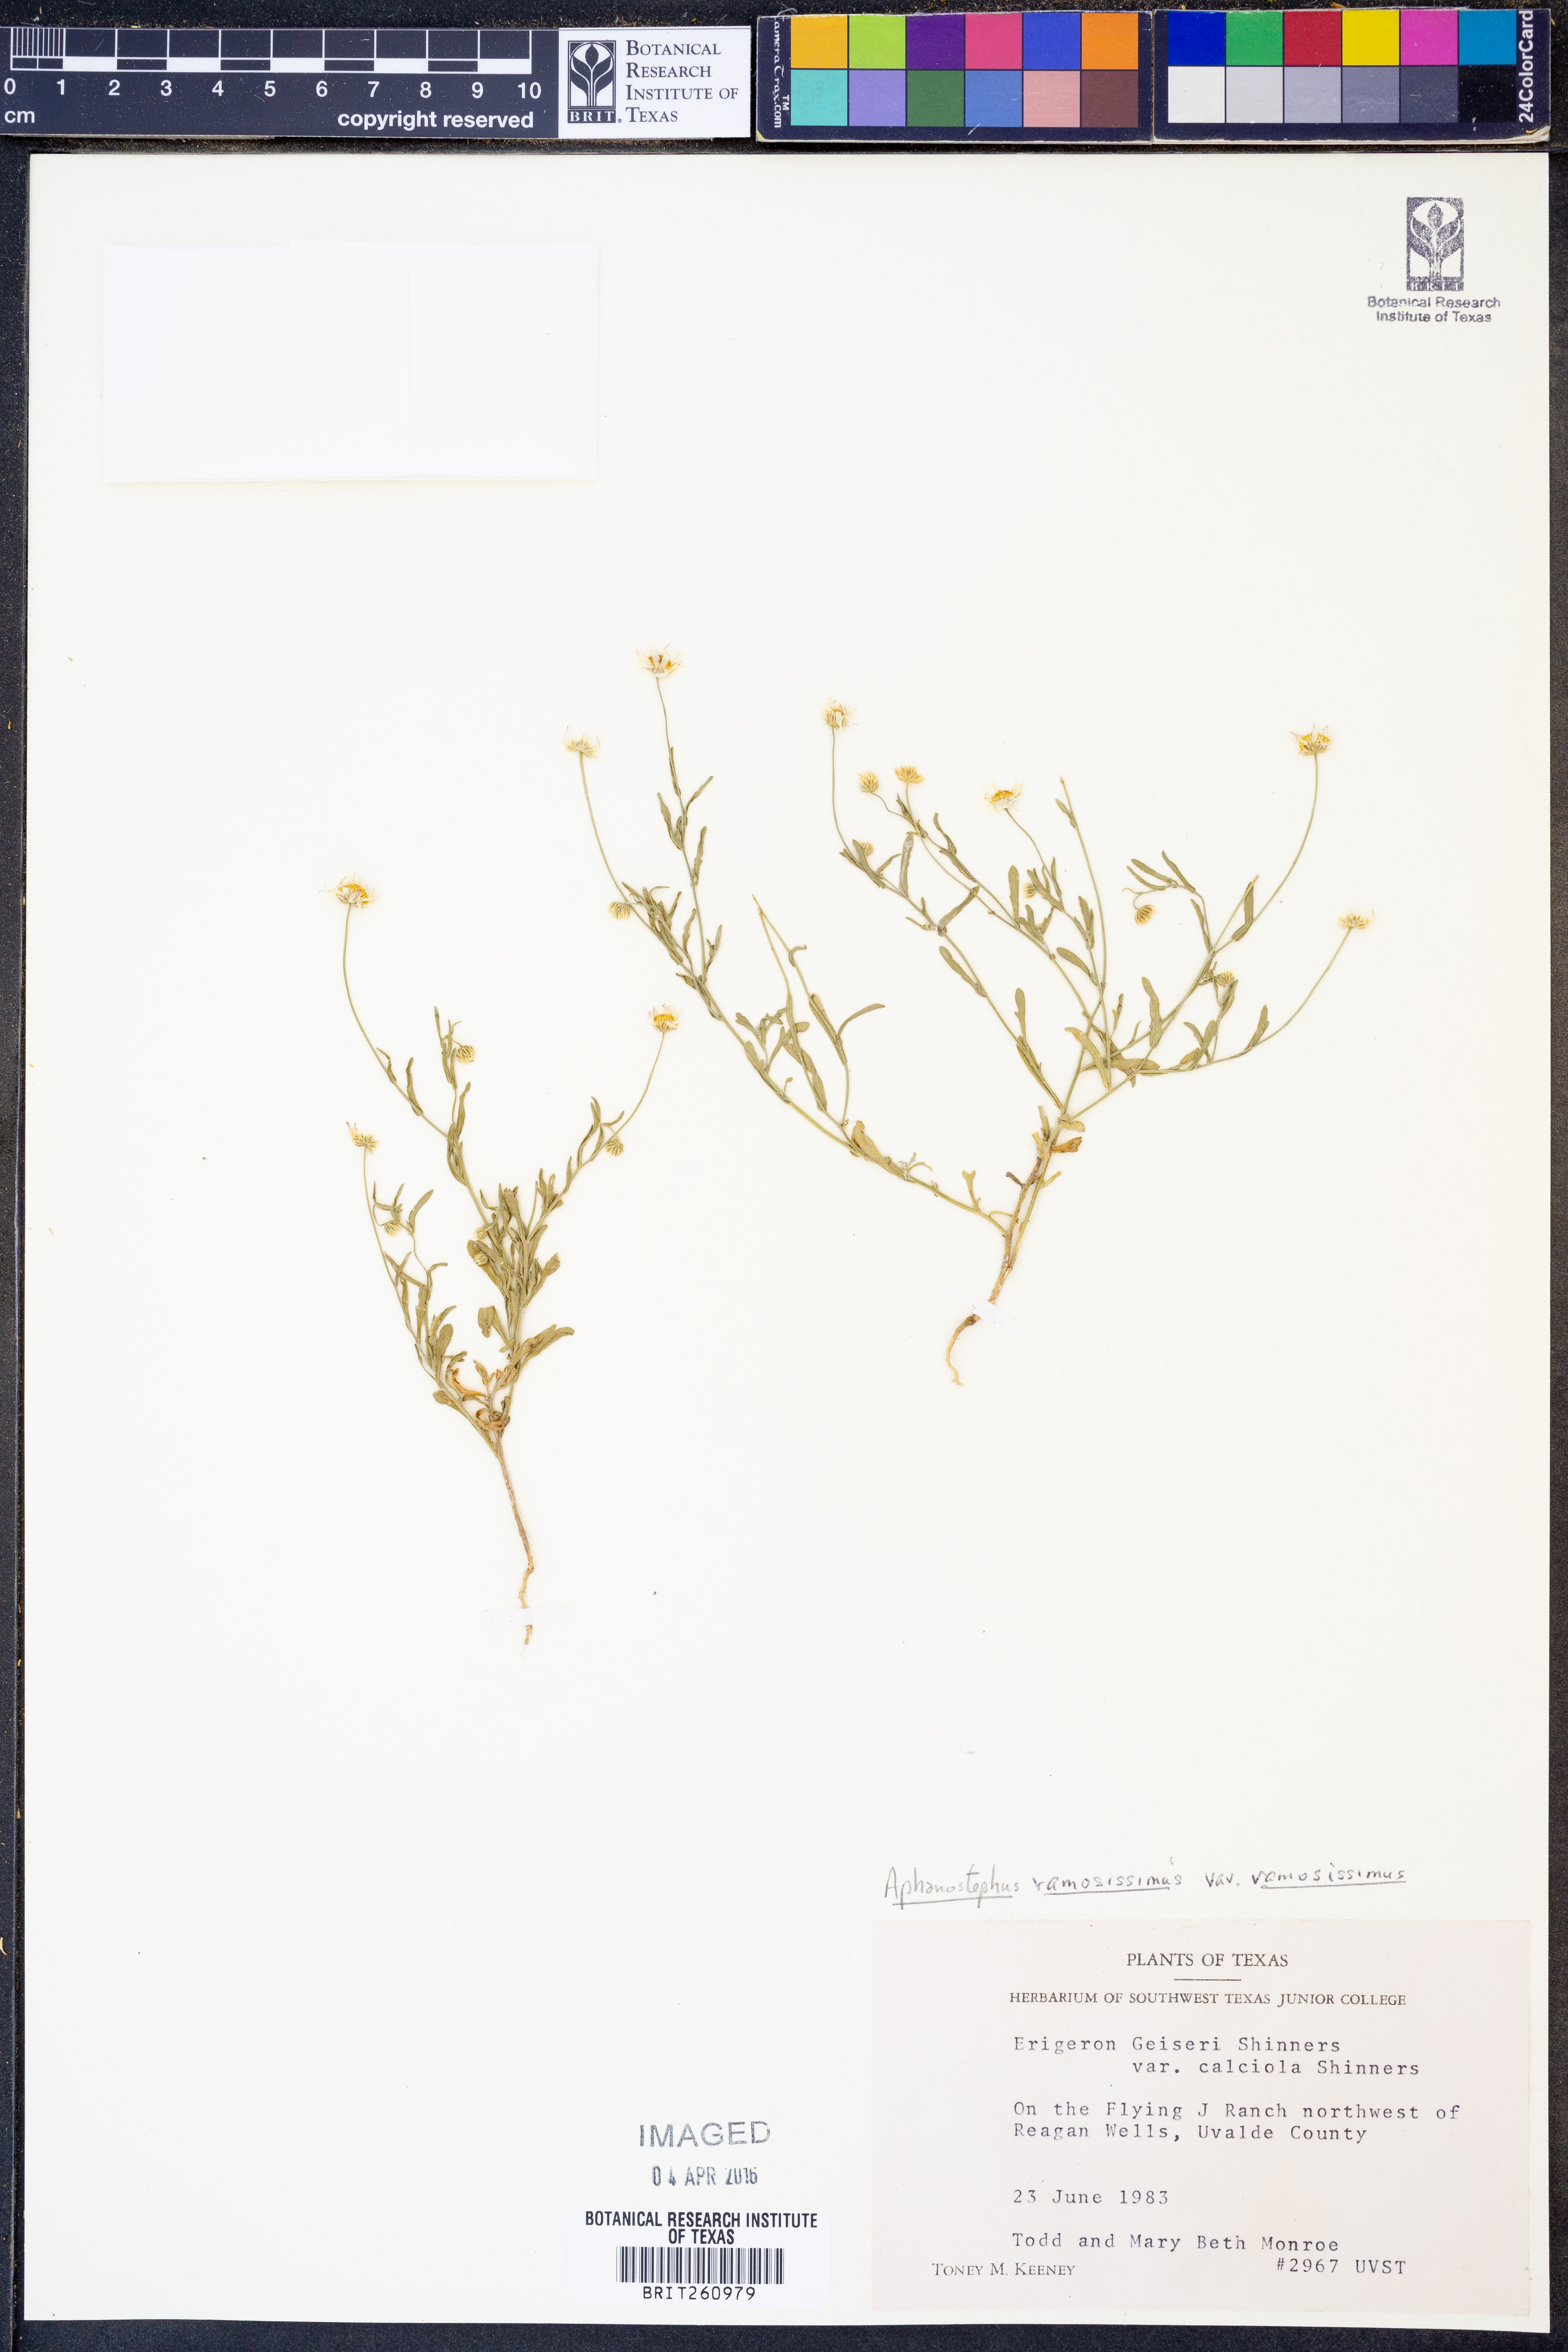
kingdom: Plantae
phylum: Tracheophyta
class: Magnoliopsida
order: Asterales
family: Asteraceae
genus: Aphanostephus
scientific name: Aphanostephus ramosissimus
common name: Plains lazy daisy
